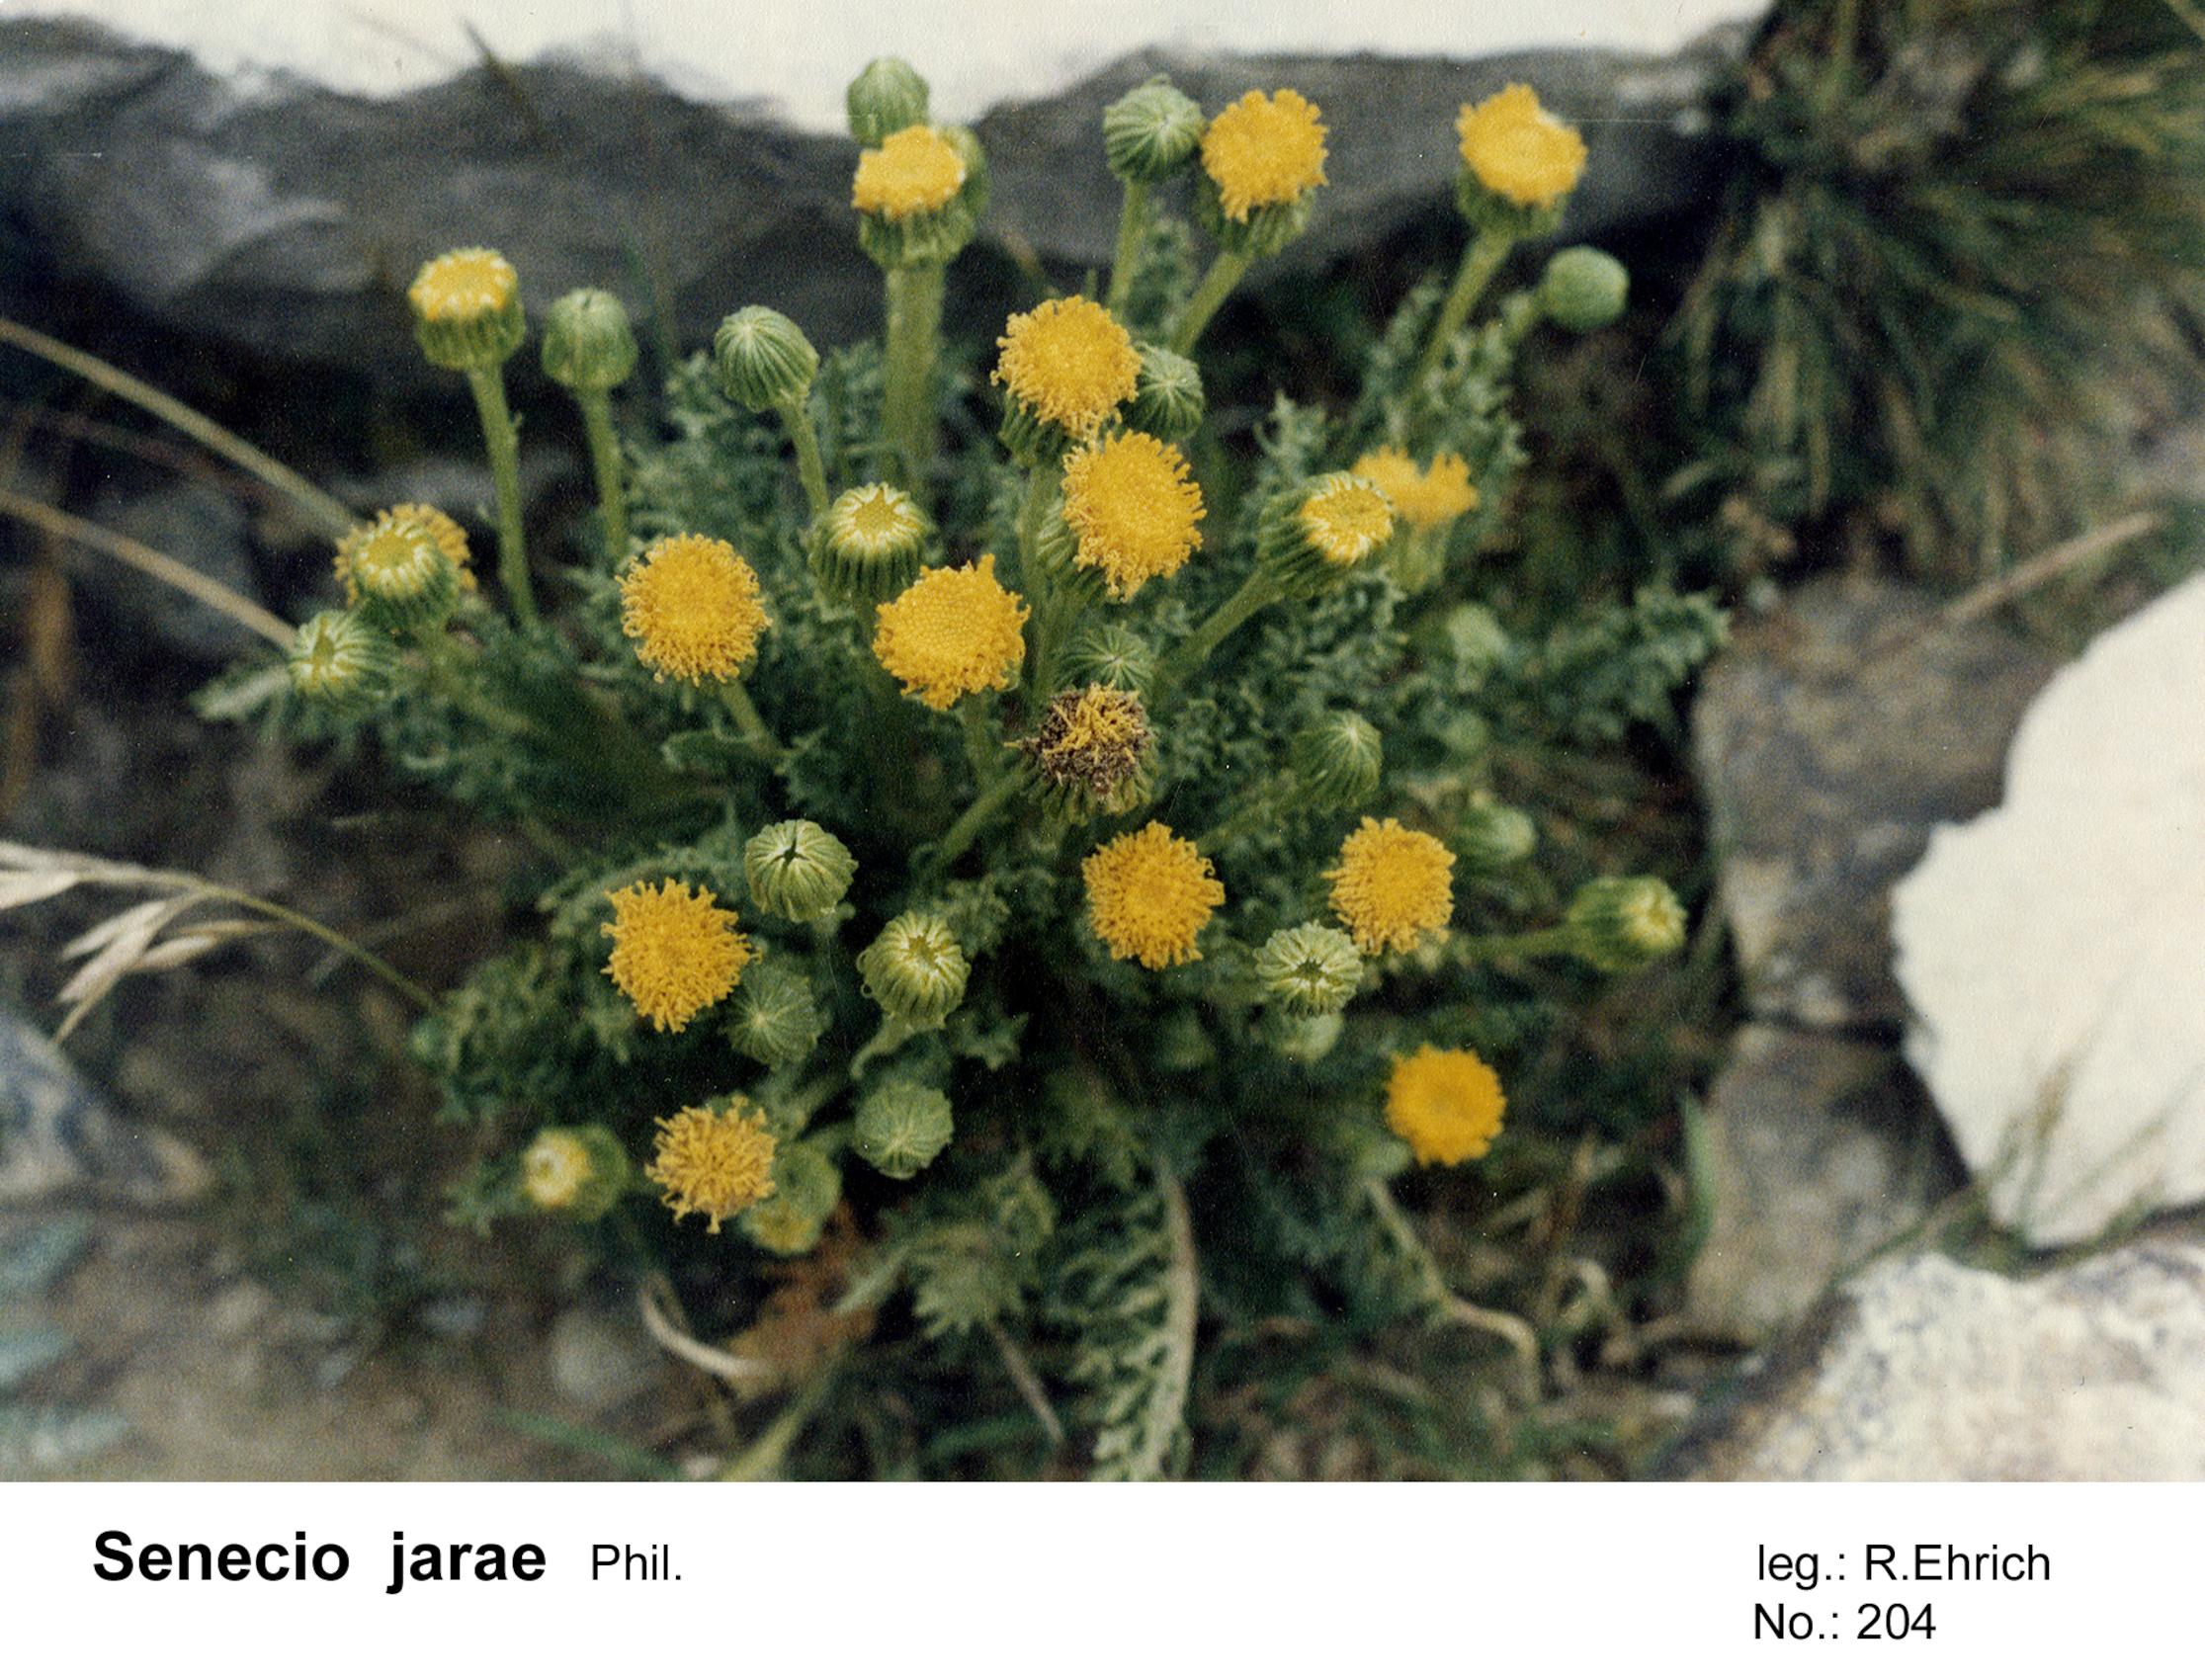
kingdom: Plantae
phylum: Tracheophyta
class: Magnoliopsida
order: Asterales
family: Asteraceae
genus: Senecio
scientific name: Senecio jarae
